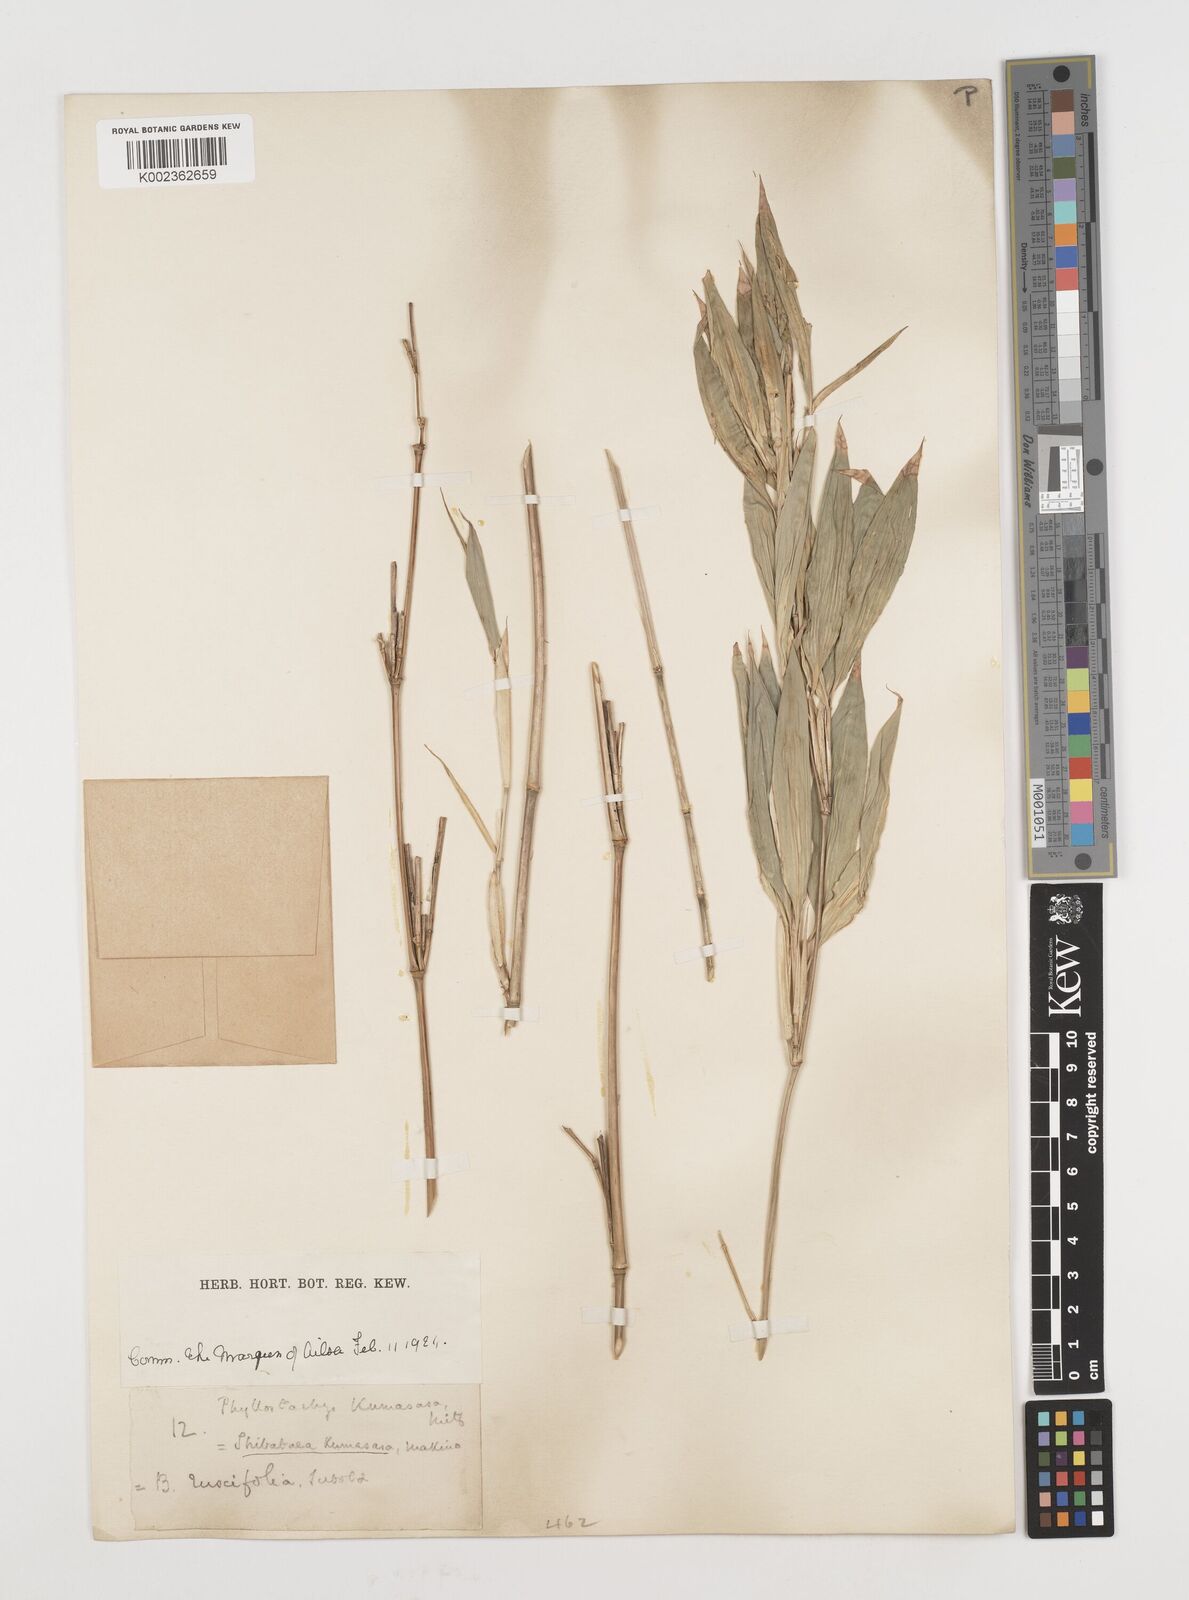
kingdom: Plantae
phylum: Tracheophyta
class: Liliopsida
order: Poales
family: Poaceae
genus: Shibataea
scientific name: Shibataea kumasasa
